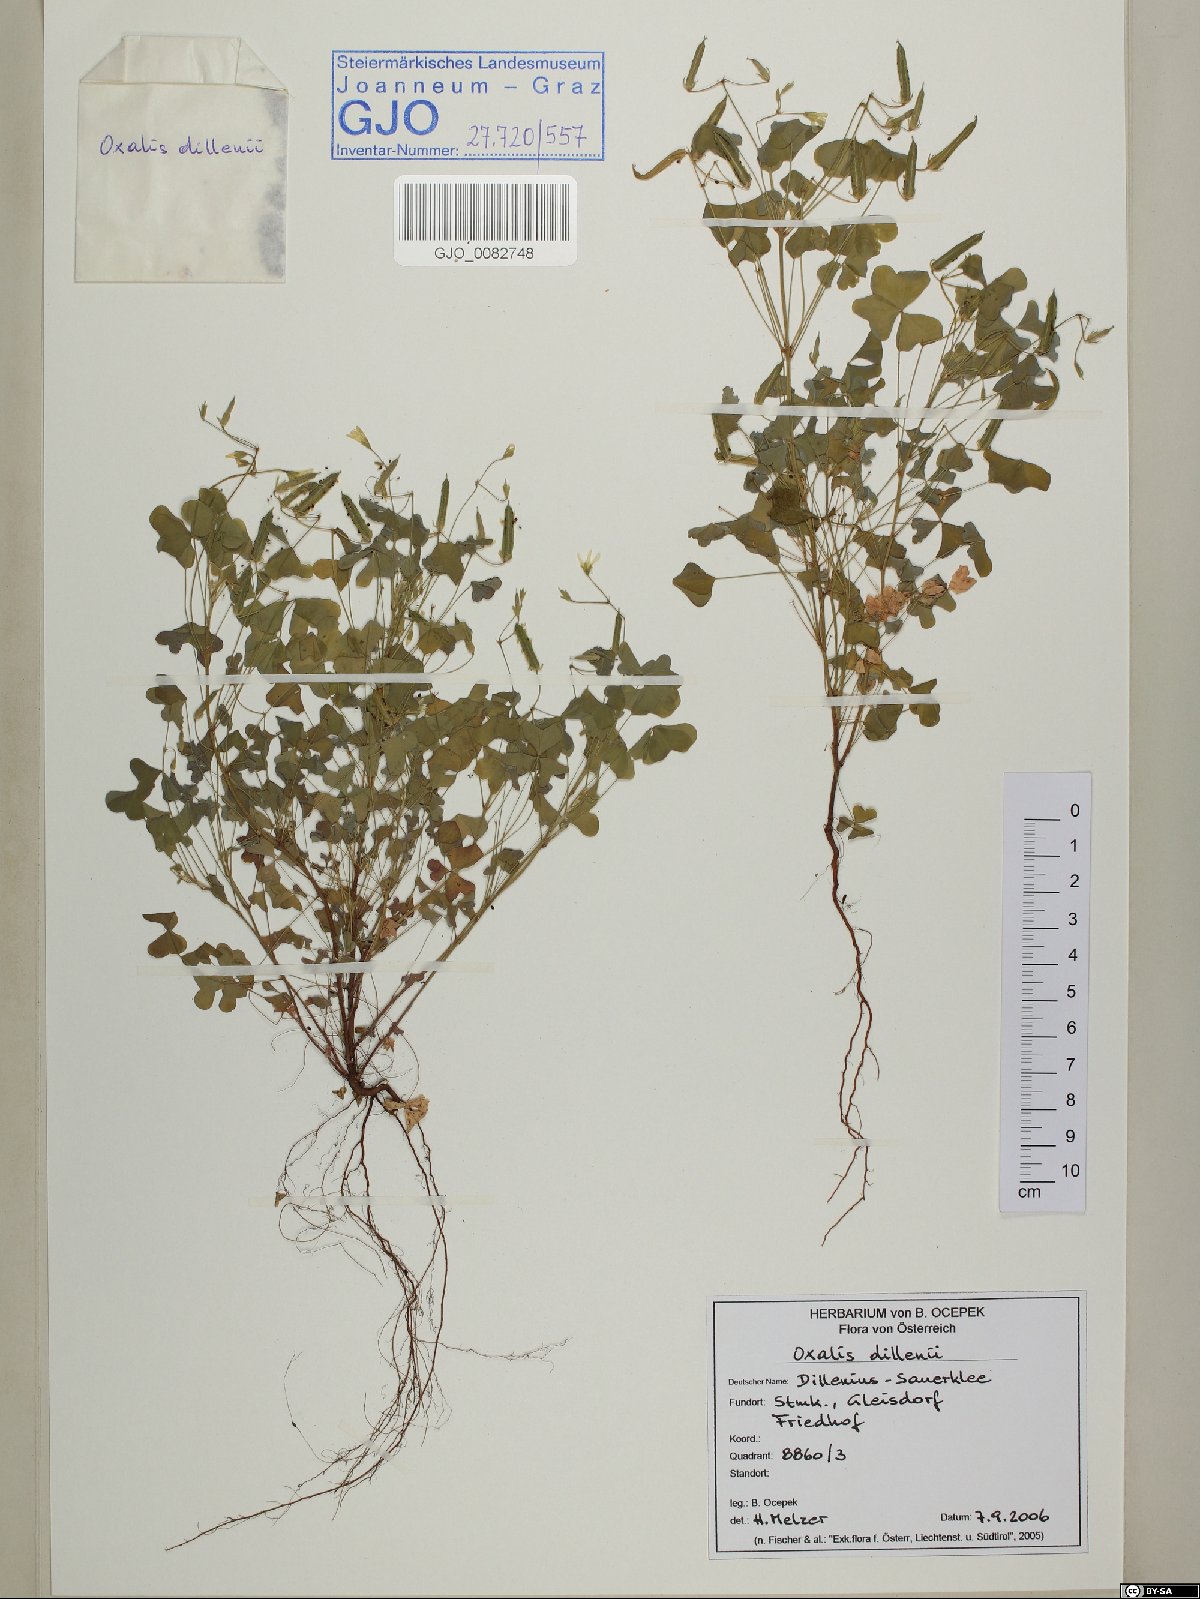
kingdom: Plantae
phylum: Tracheophyta
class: Magnoliopsida
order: Oxalidales
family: Oxalidaceae
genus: Oxalis
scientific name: Oxalis dillenii
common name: Sussex yellow-sorrel
